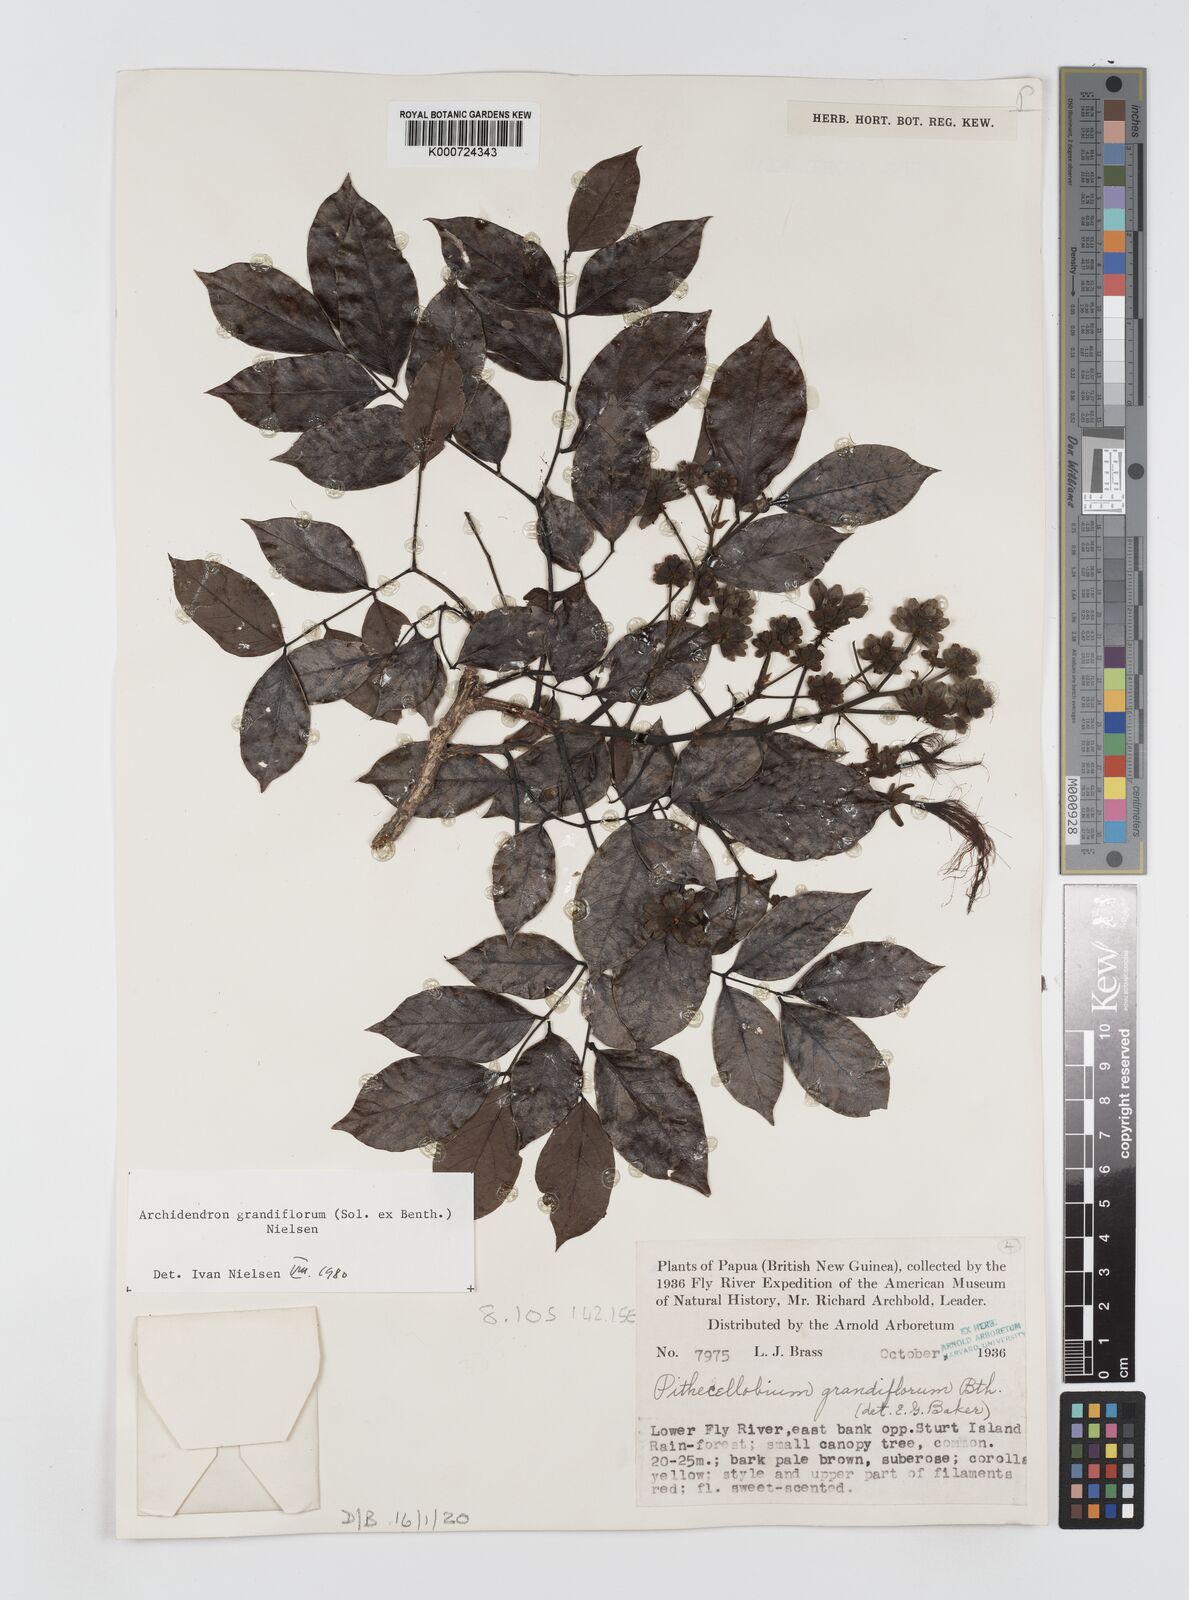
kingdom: Plantae
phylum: Tracheophyta
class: Magnoliopsida
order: Fabales
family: Fabaceae
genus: Archidendron
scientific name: Archidendron grandiflorum
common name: Tulip siris
